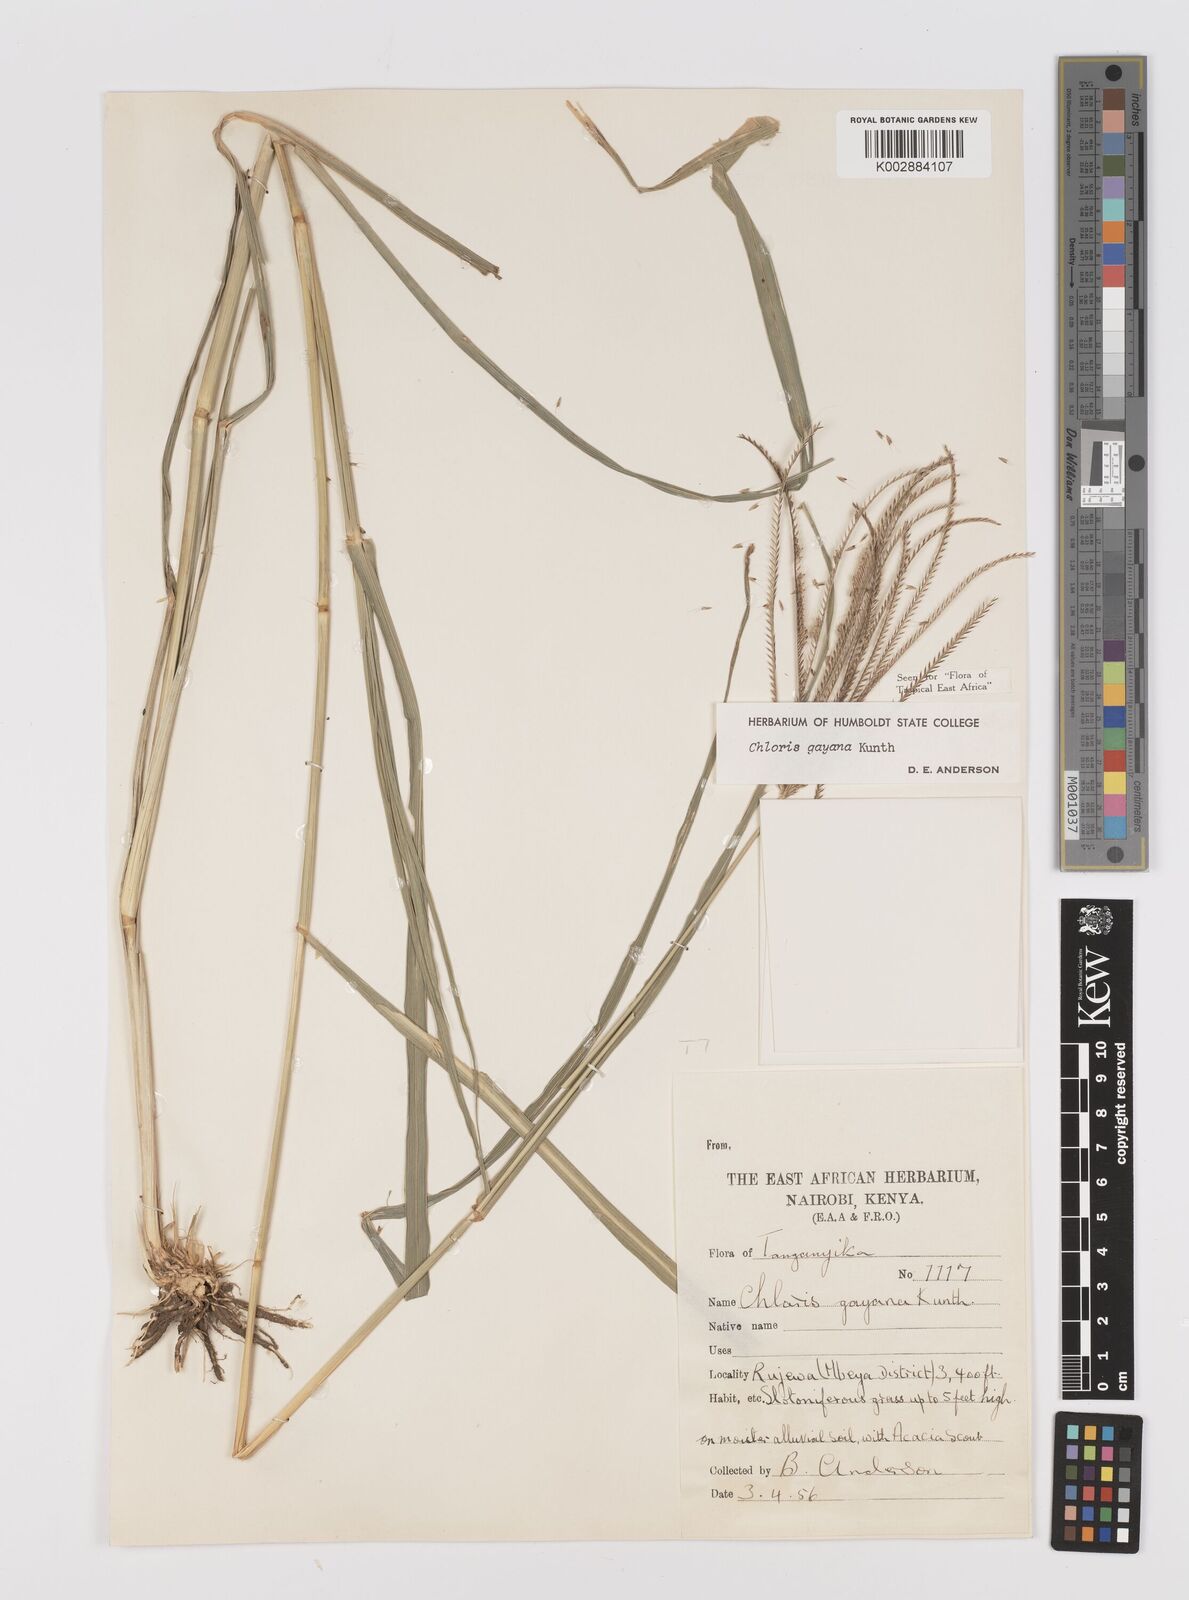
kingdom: Plantae
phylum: Tracheophyta
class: Liliopsida
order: Poales
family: Poaceae
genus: Chloris
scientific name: Chloris gayana
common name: Rhodes grass
